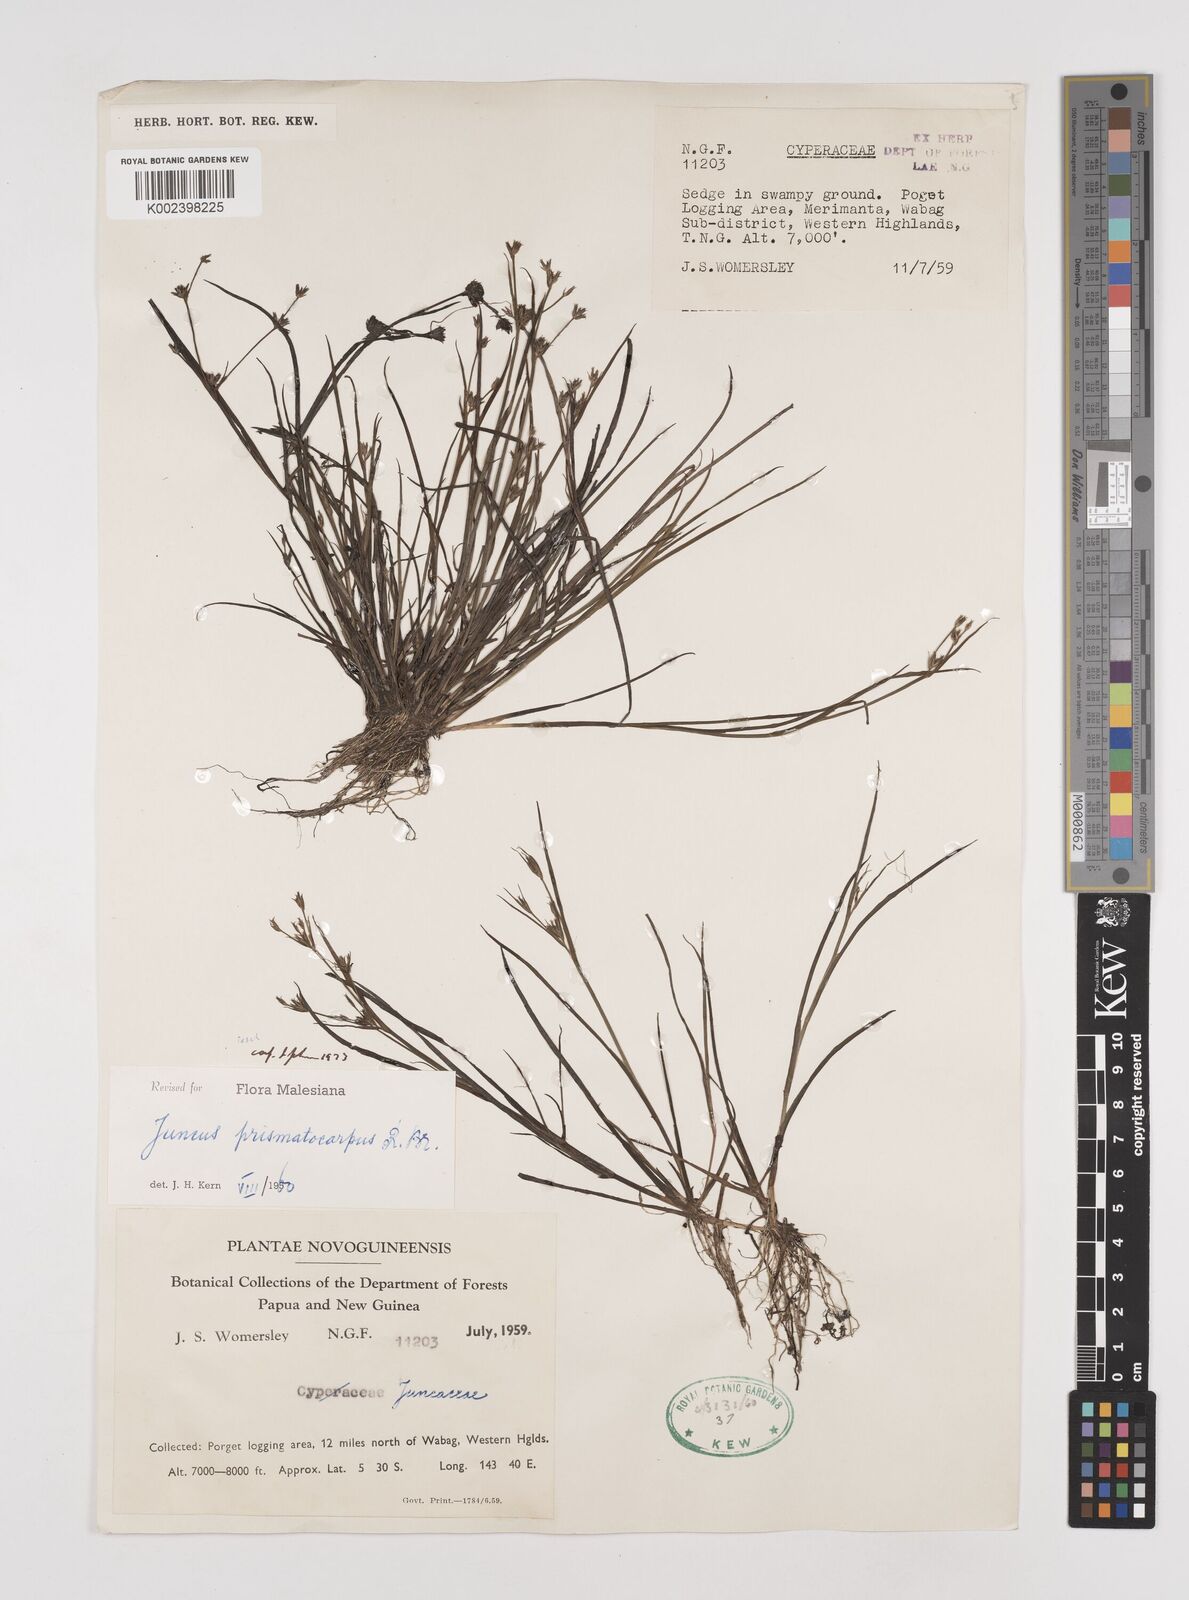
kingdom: Plantae
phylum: Tracheophyta
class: Liliopsida
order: Poales
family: Juncaceae
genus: Juncus
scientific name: Juncus prismatocarpus
